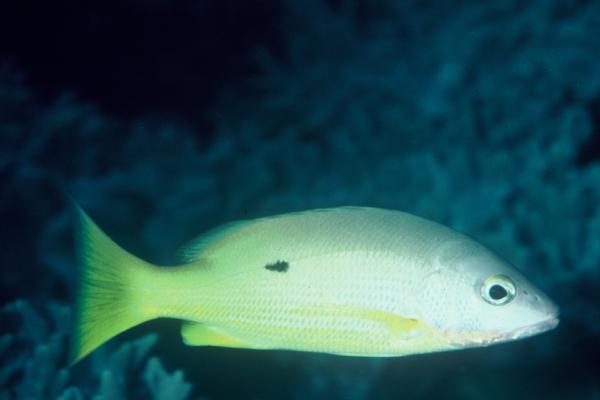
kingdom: Animalia
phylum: Chordata
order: Perciformes
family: Lutjanidae
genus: Lutjanus
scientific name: Lutjanus
